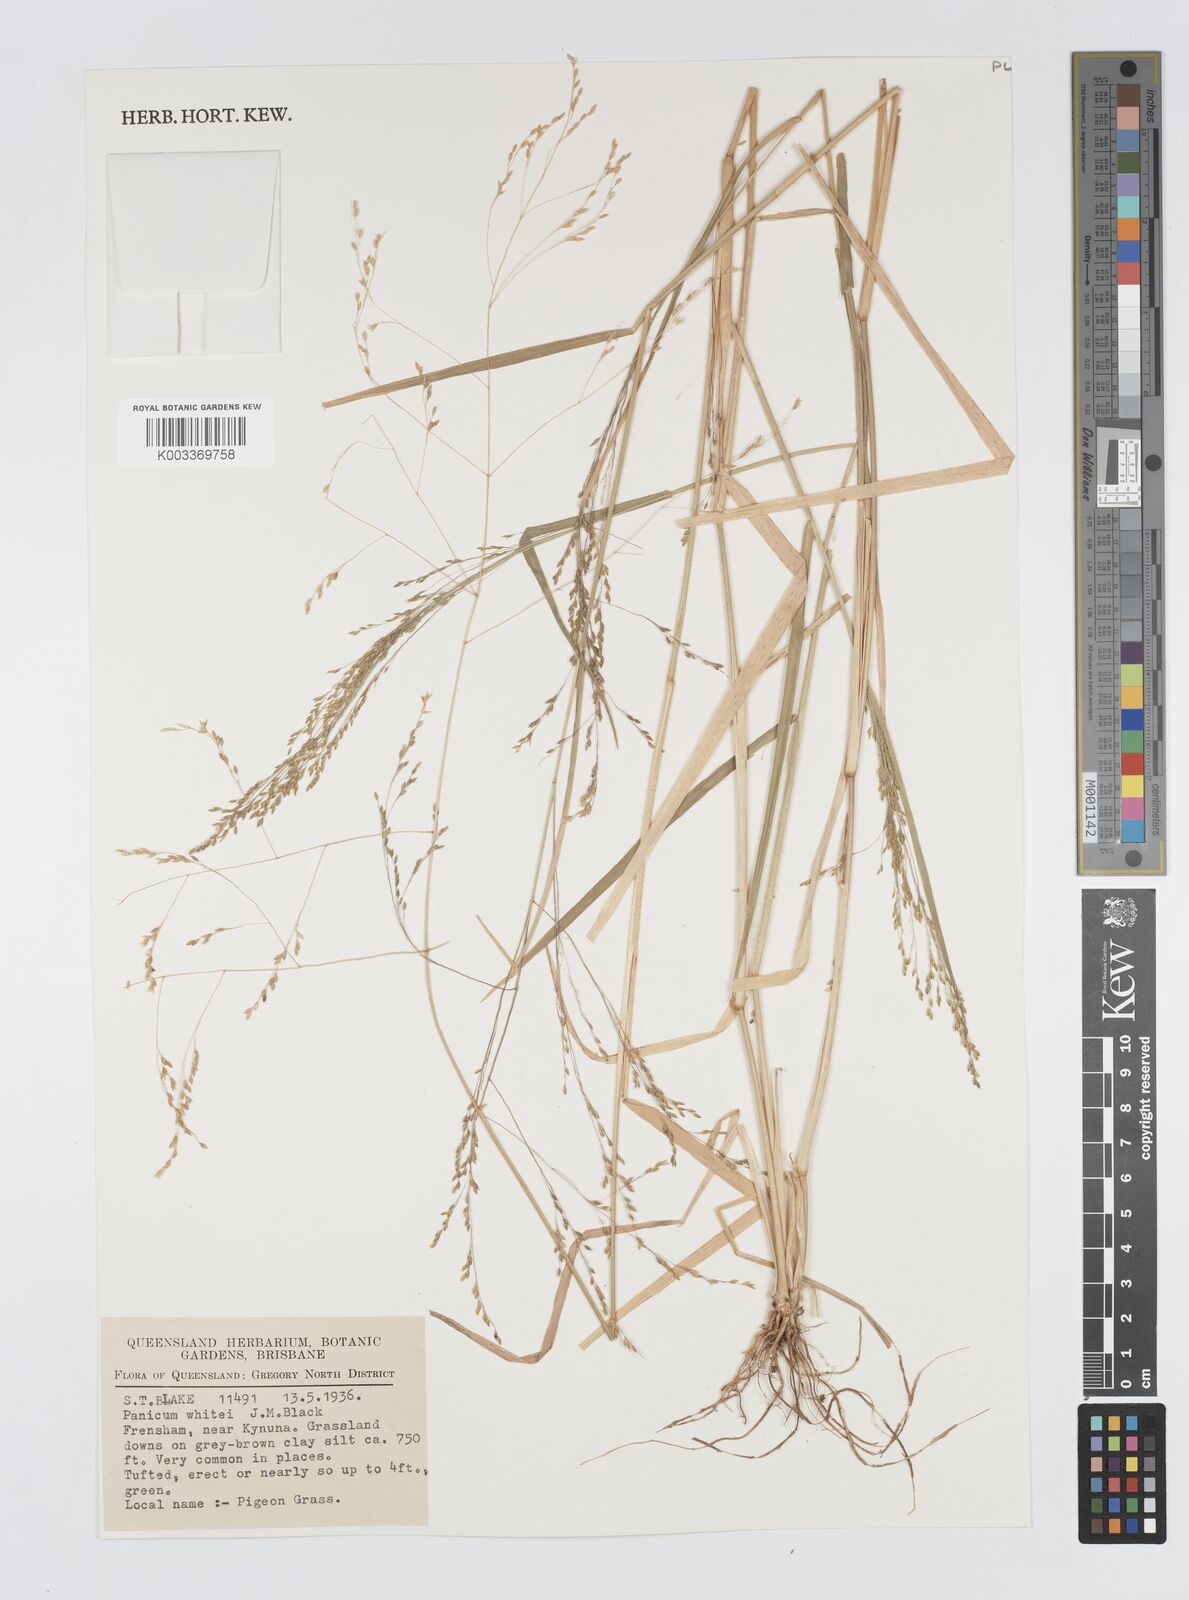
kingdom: Plantae
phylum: Tracheophyta
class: Liliopsida
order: Poales
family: Poaceae
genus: Panicum
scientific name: Panicum laevinode
